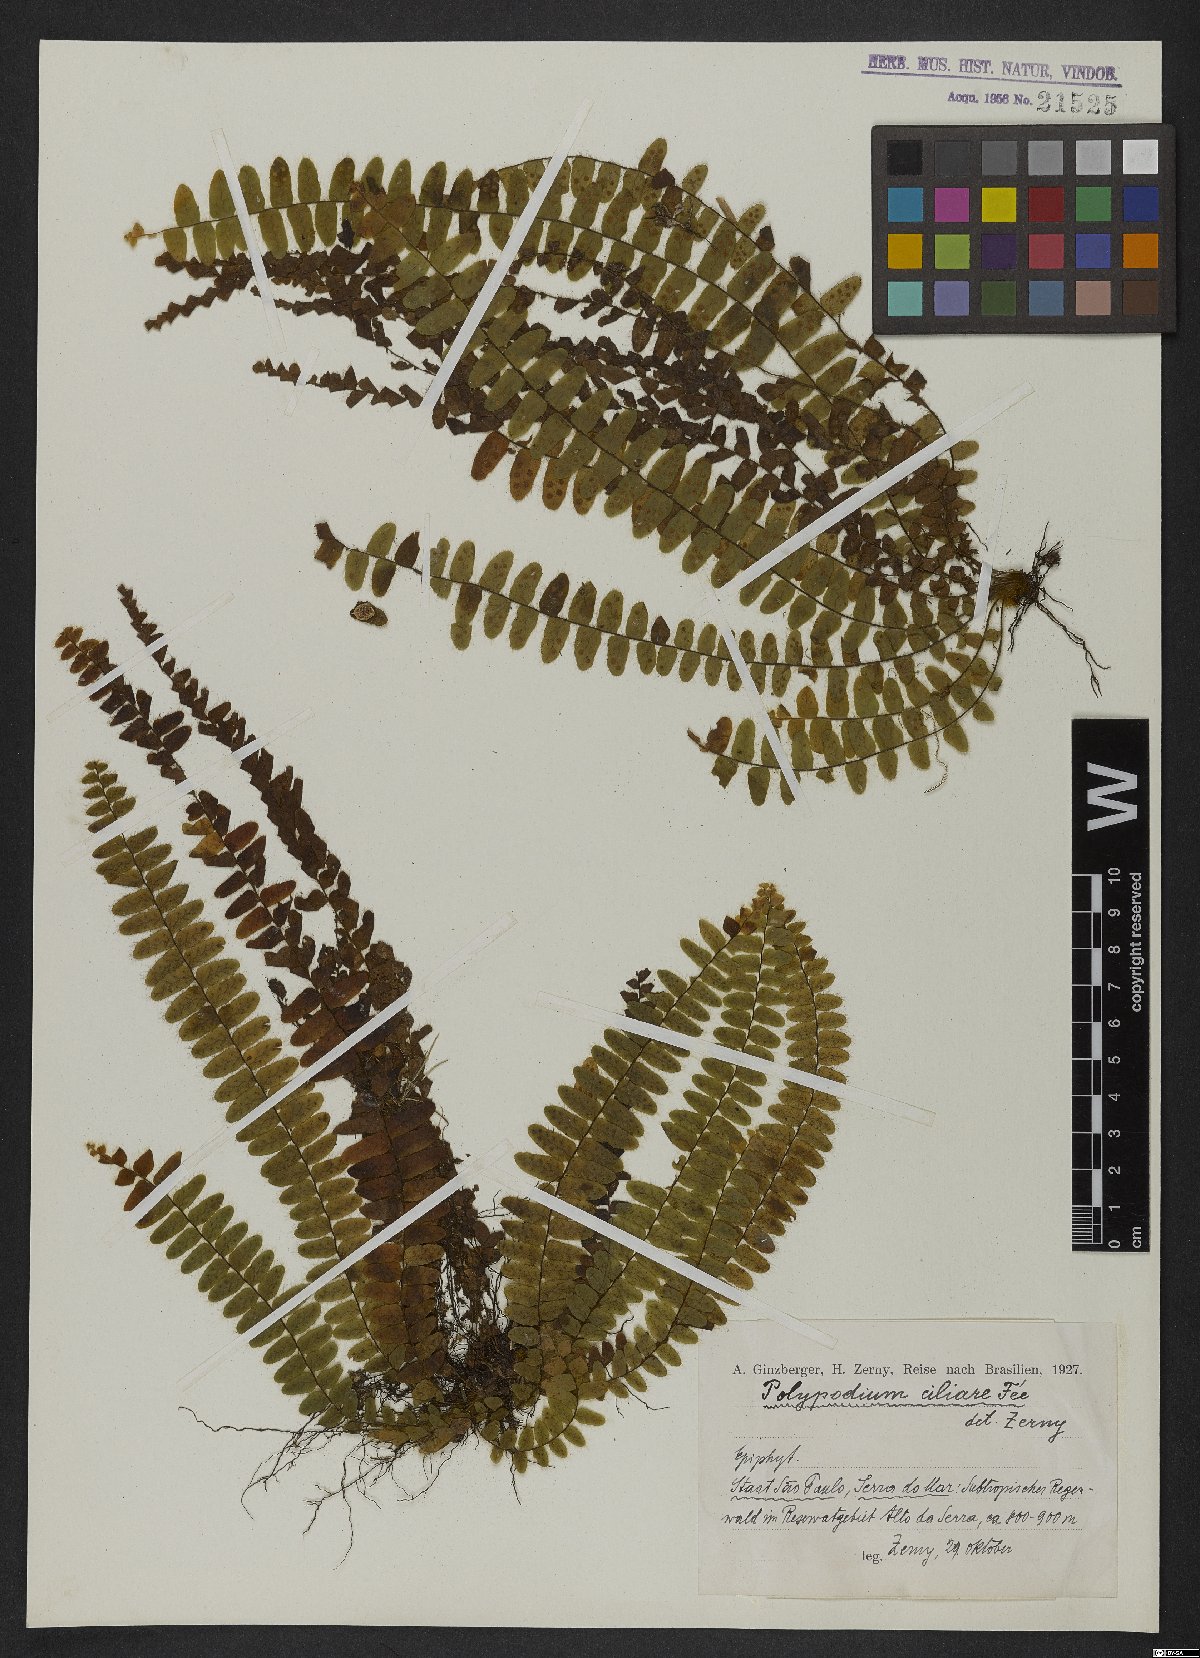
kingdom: Plantae
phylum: Tracheophyta
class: Polypodiopsida
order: Polypodiales
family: Polypodiaceae
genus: Alansmia
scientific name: Alansmia reclinata
